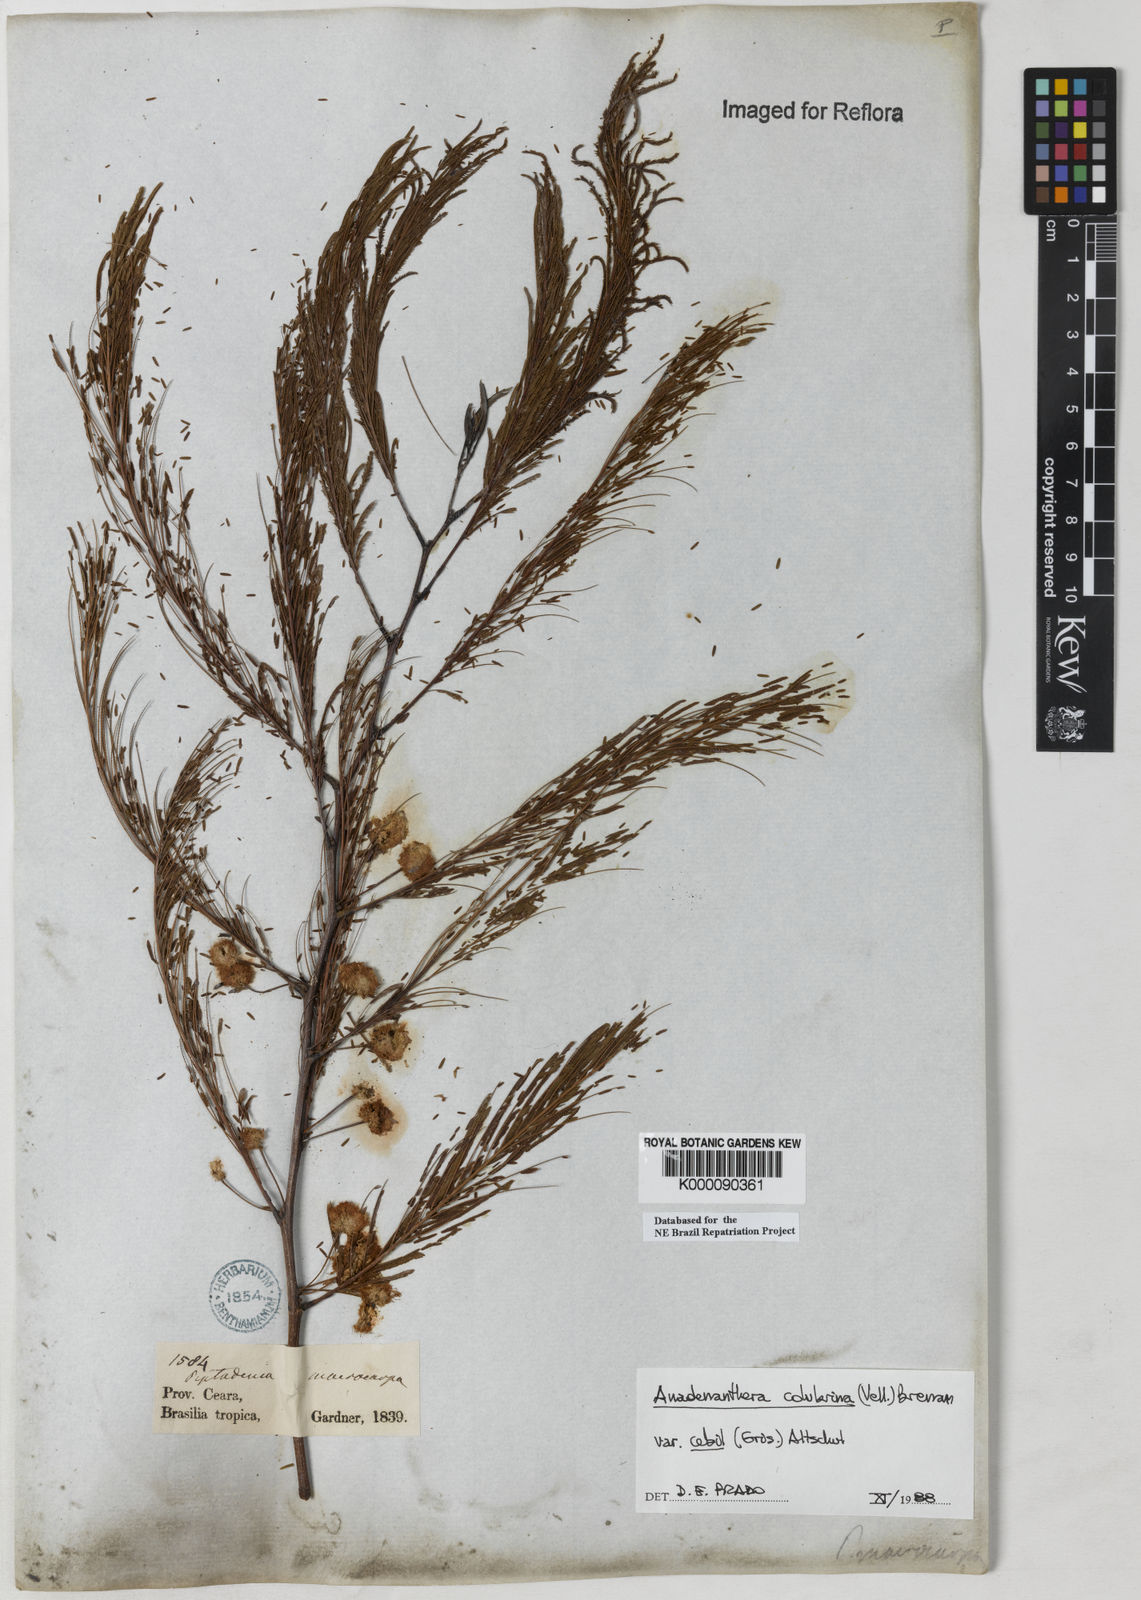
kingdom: Plantae
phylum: Tracheophyta
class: Magnoliopsida
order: Fabales
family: Fabaceae
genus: Anadenanthera
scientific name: Anadenanthera colubrina
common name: Curupay
